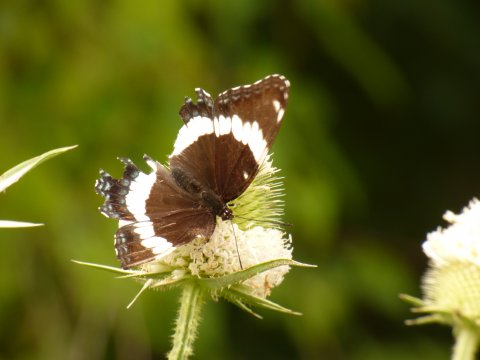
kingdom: Animalia
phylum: Arthropoda
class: Insecta
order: Lepidoptera
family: Nymphalidae
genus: Limenitis
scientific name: Limenitis arthemis
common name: Red-spotted Admiral
